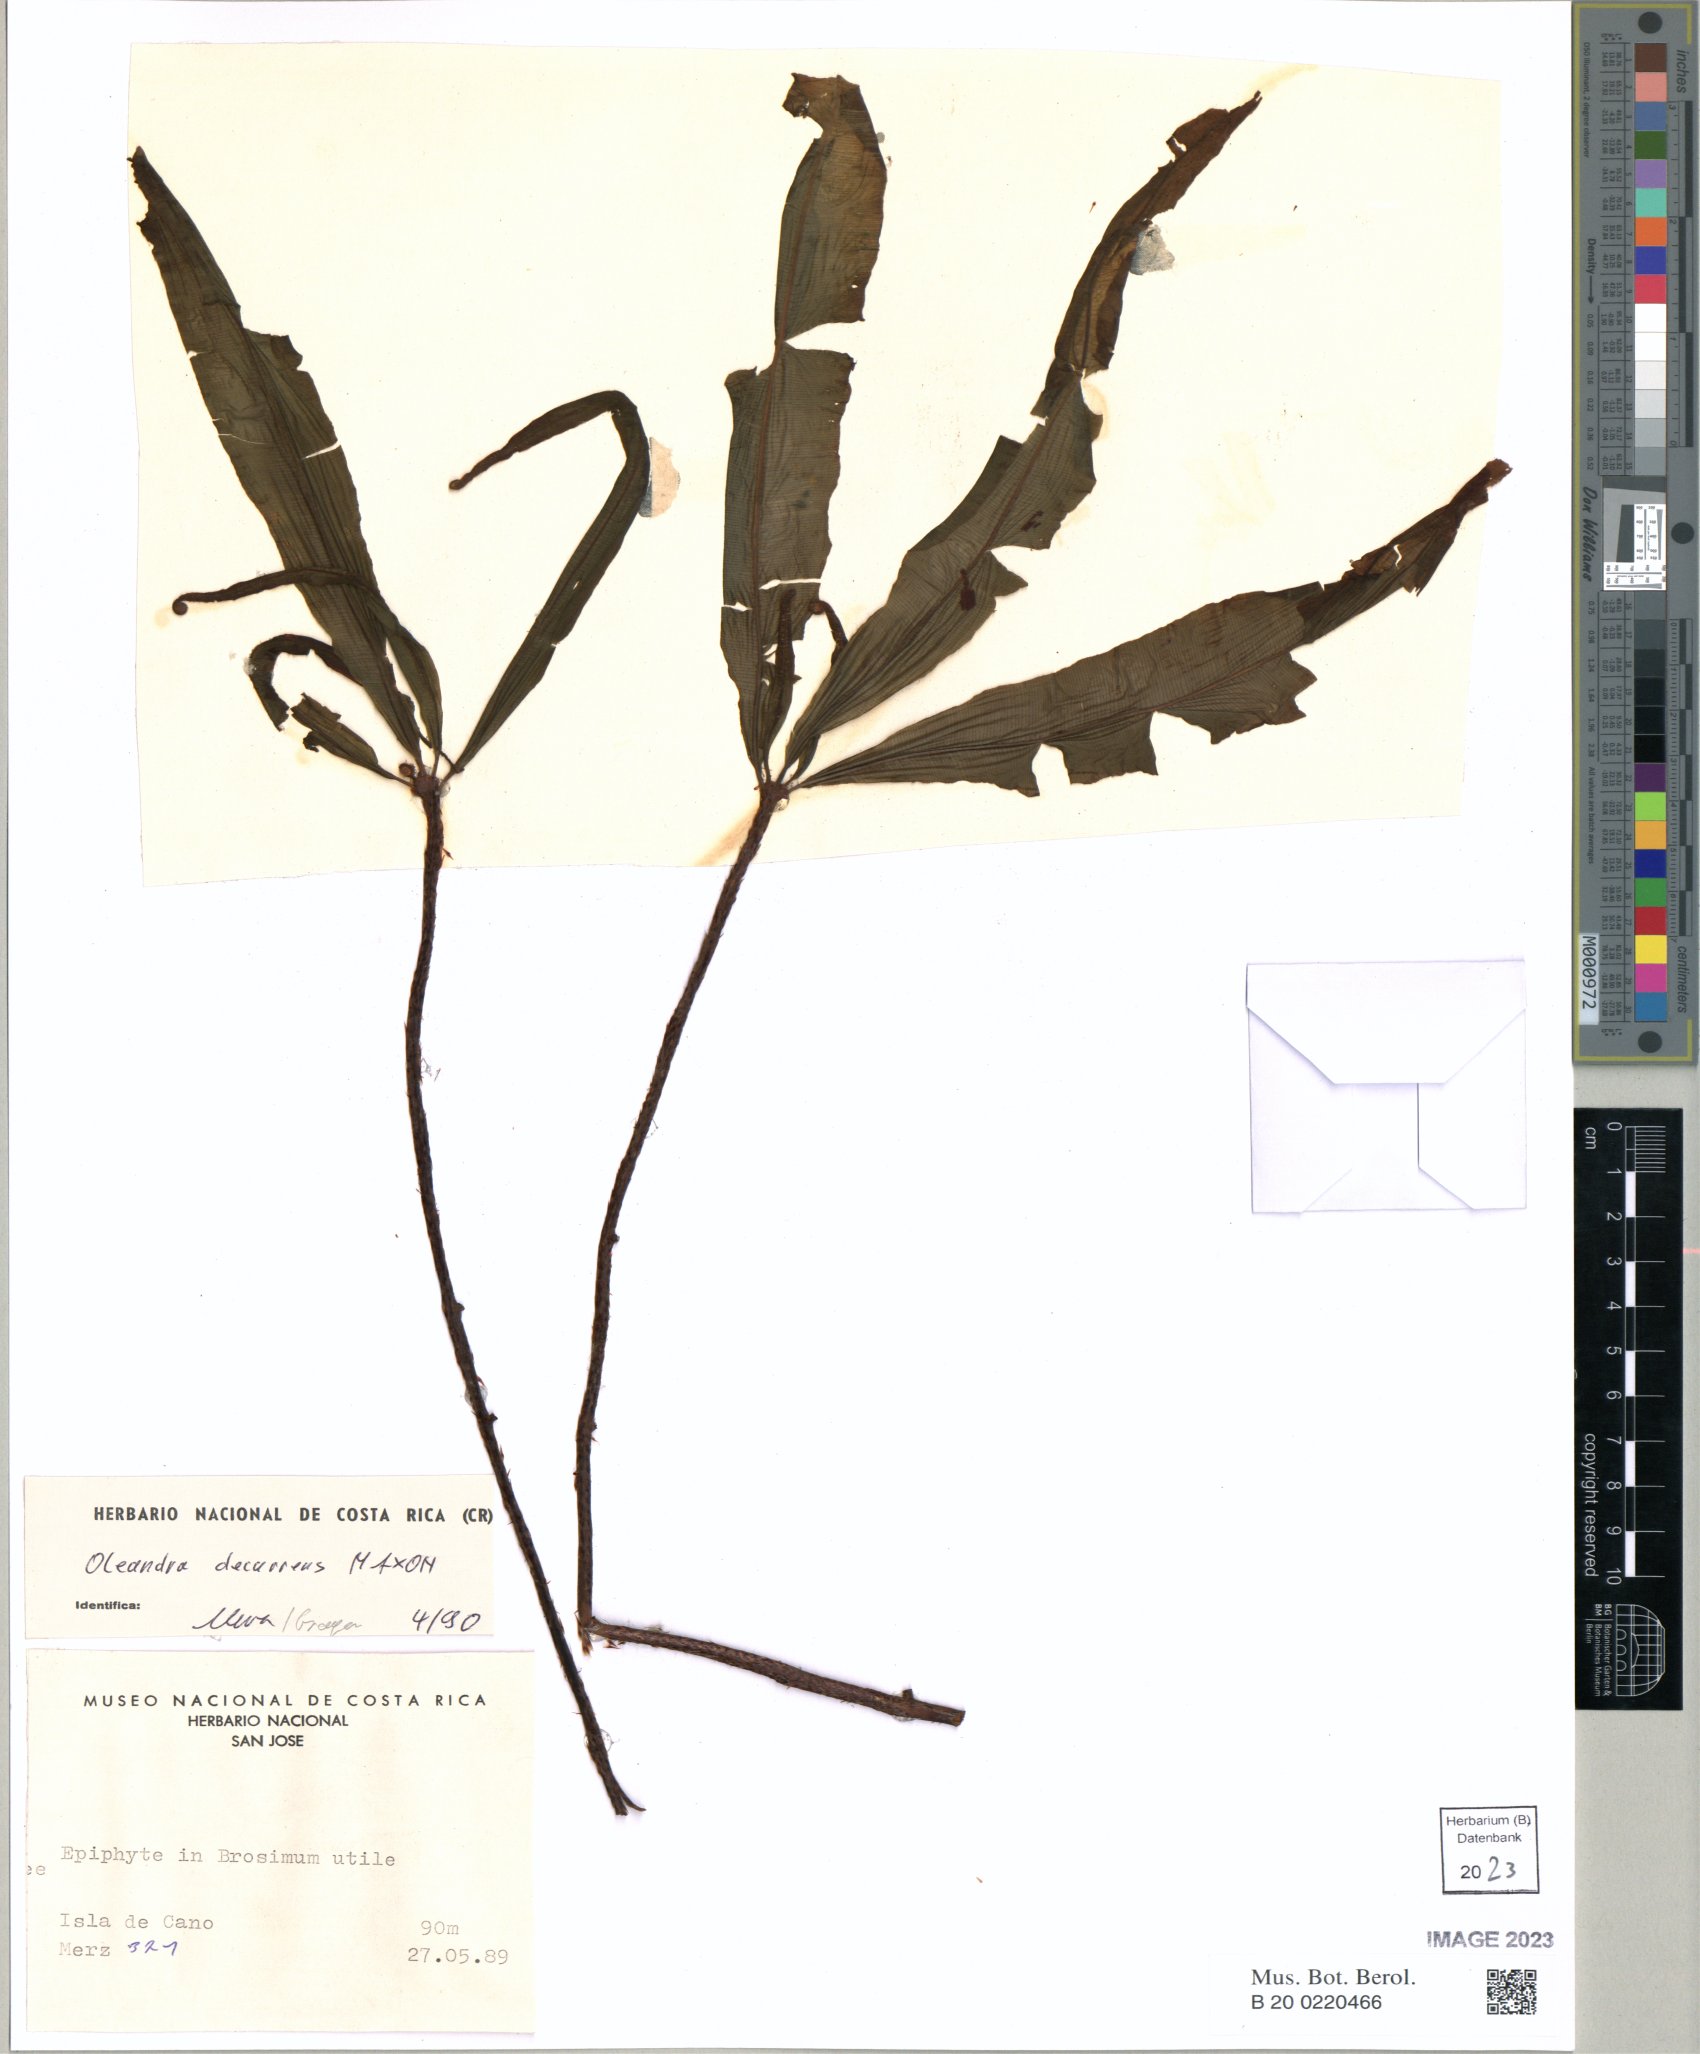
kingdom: Plantae
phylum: Tracheophyta
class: Polypodiopsida
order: Polypodiales
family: Oleandraceae
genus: Oleandra
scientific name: Oleandra decurrens
